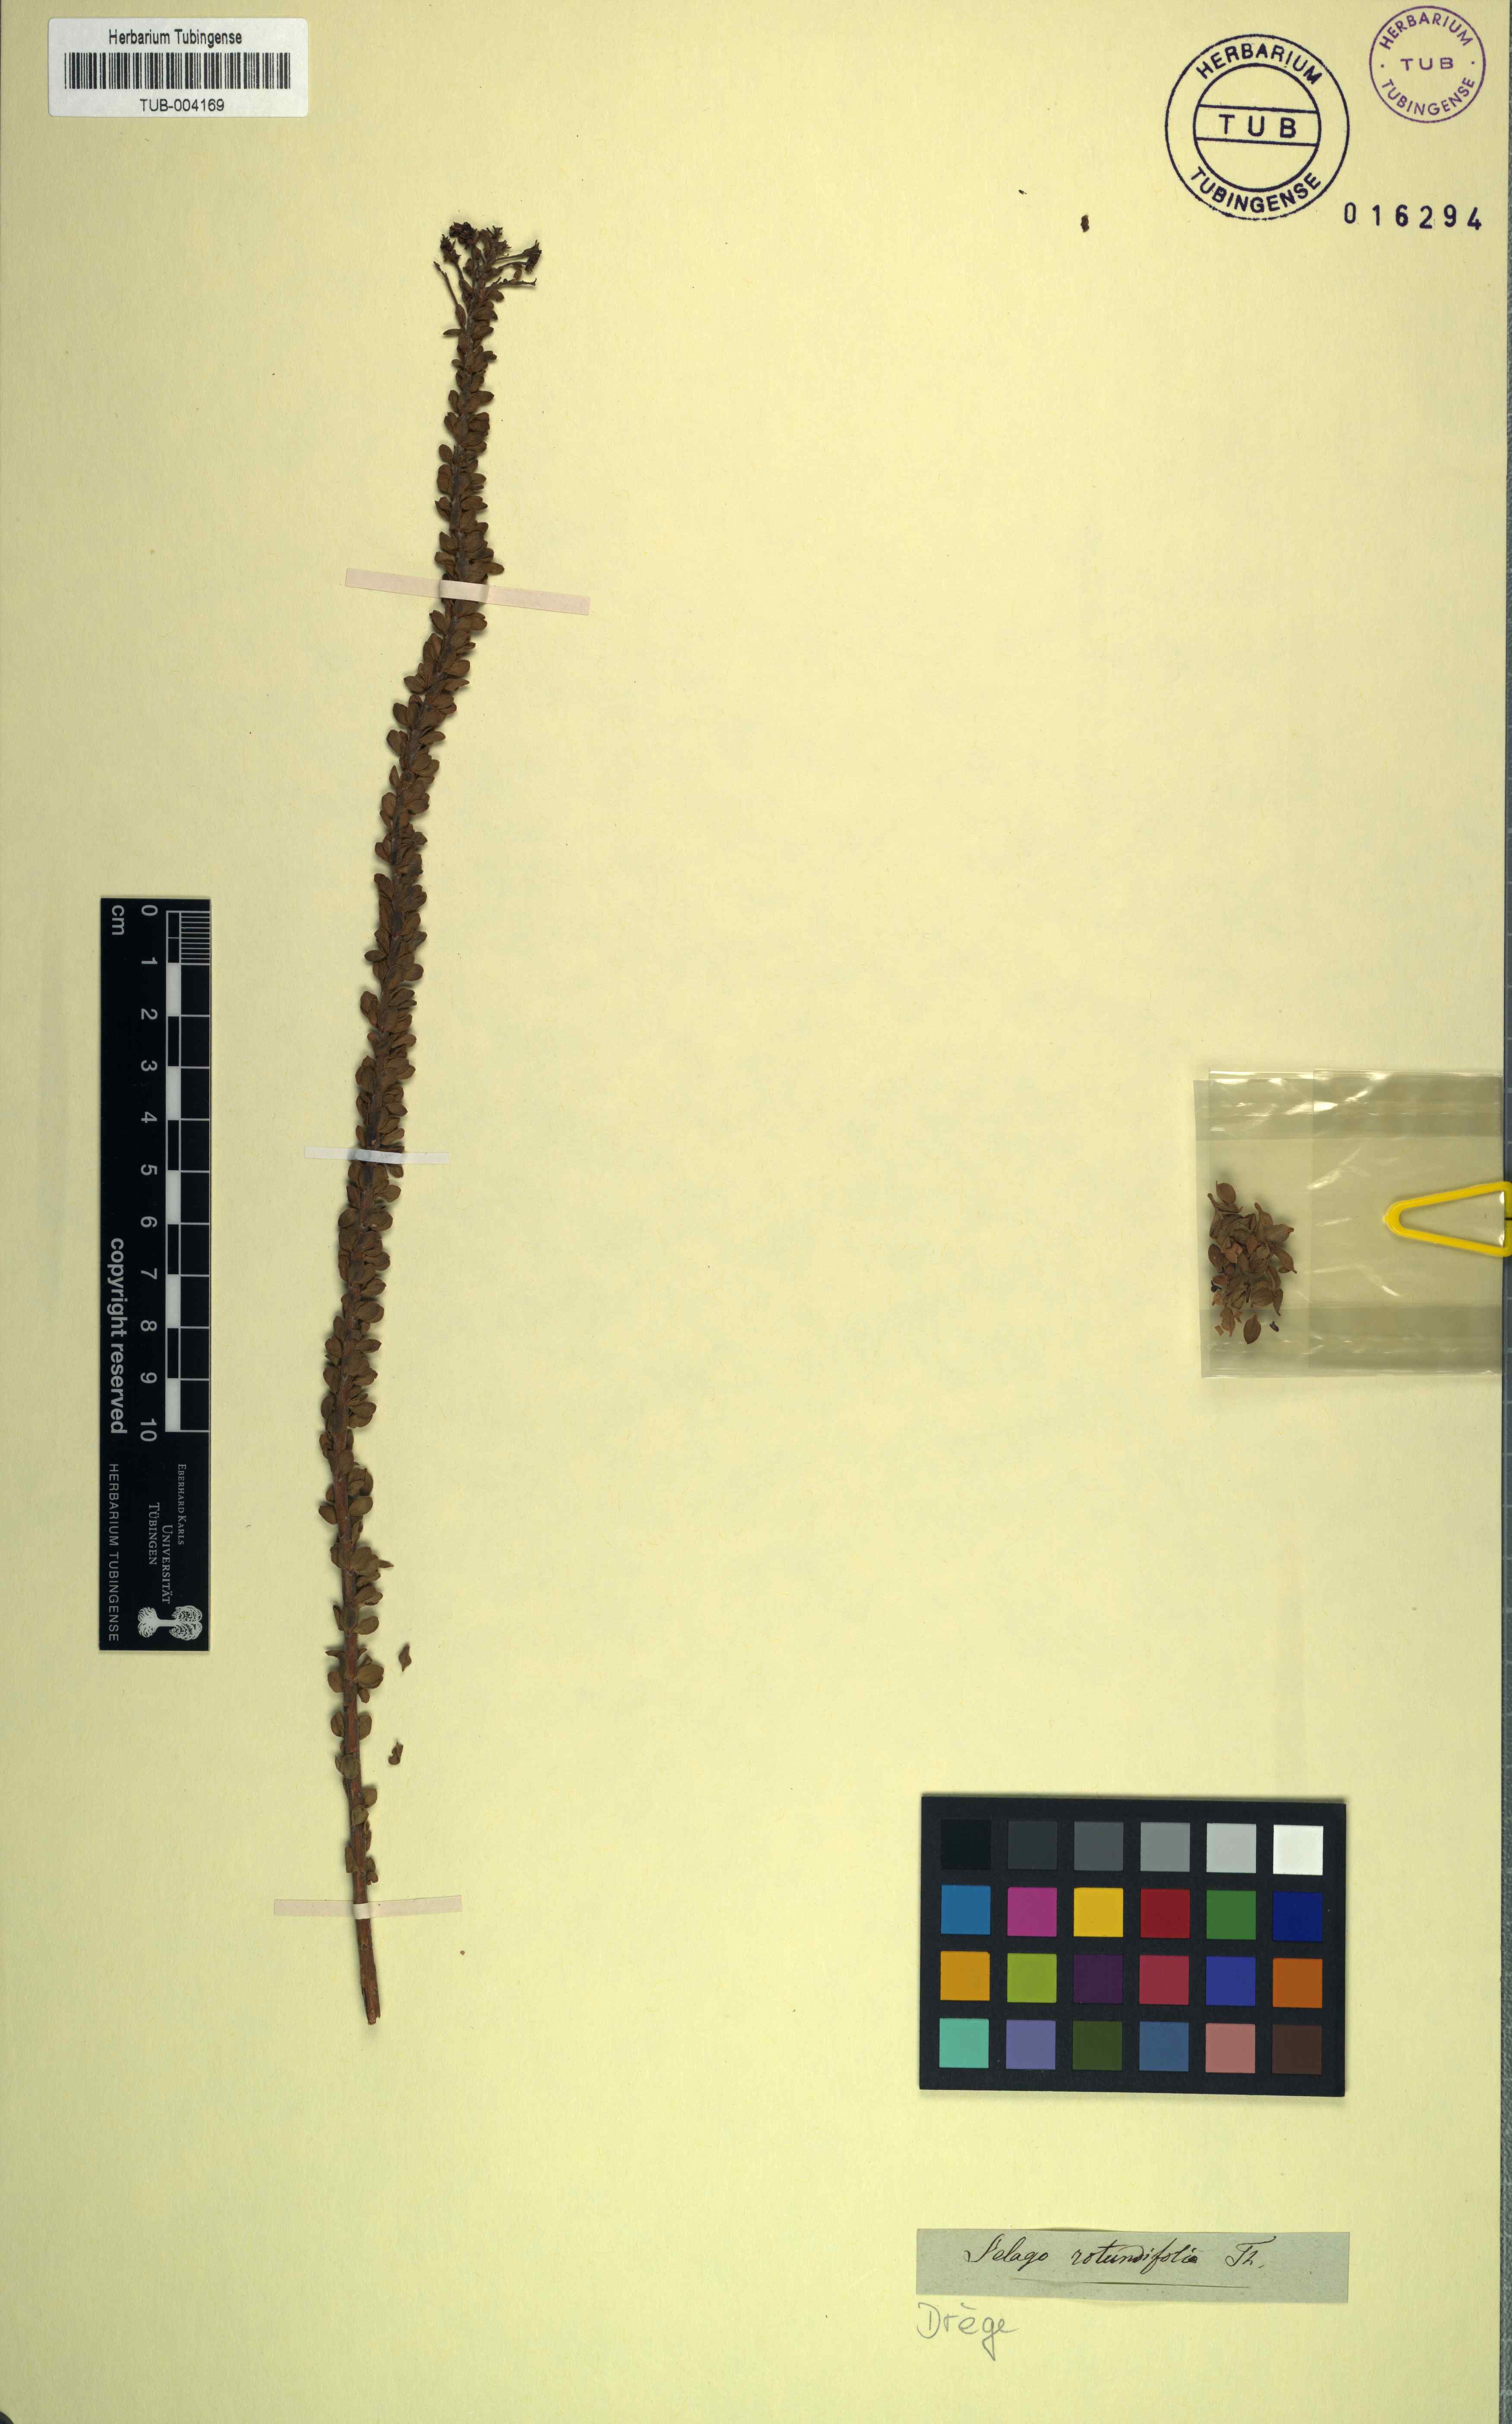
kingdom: Plantae
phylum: Tracheophyta
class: Magnoliopsida
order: Lamiales
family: Scrophulariaceae
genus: Microdon
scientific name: Microdon parviflorus
